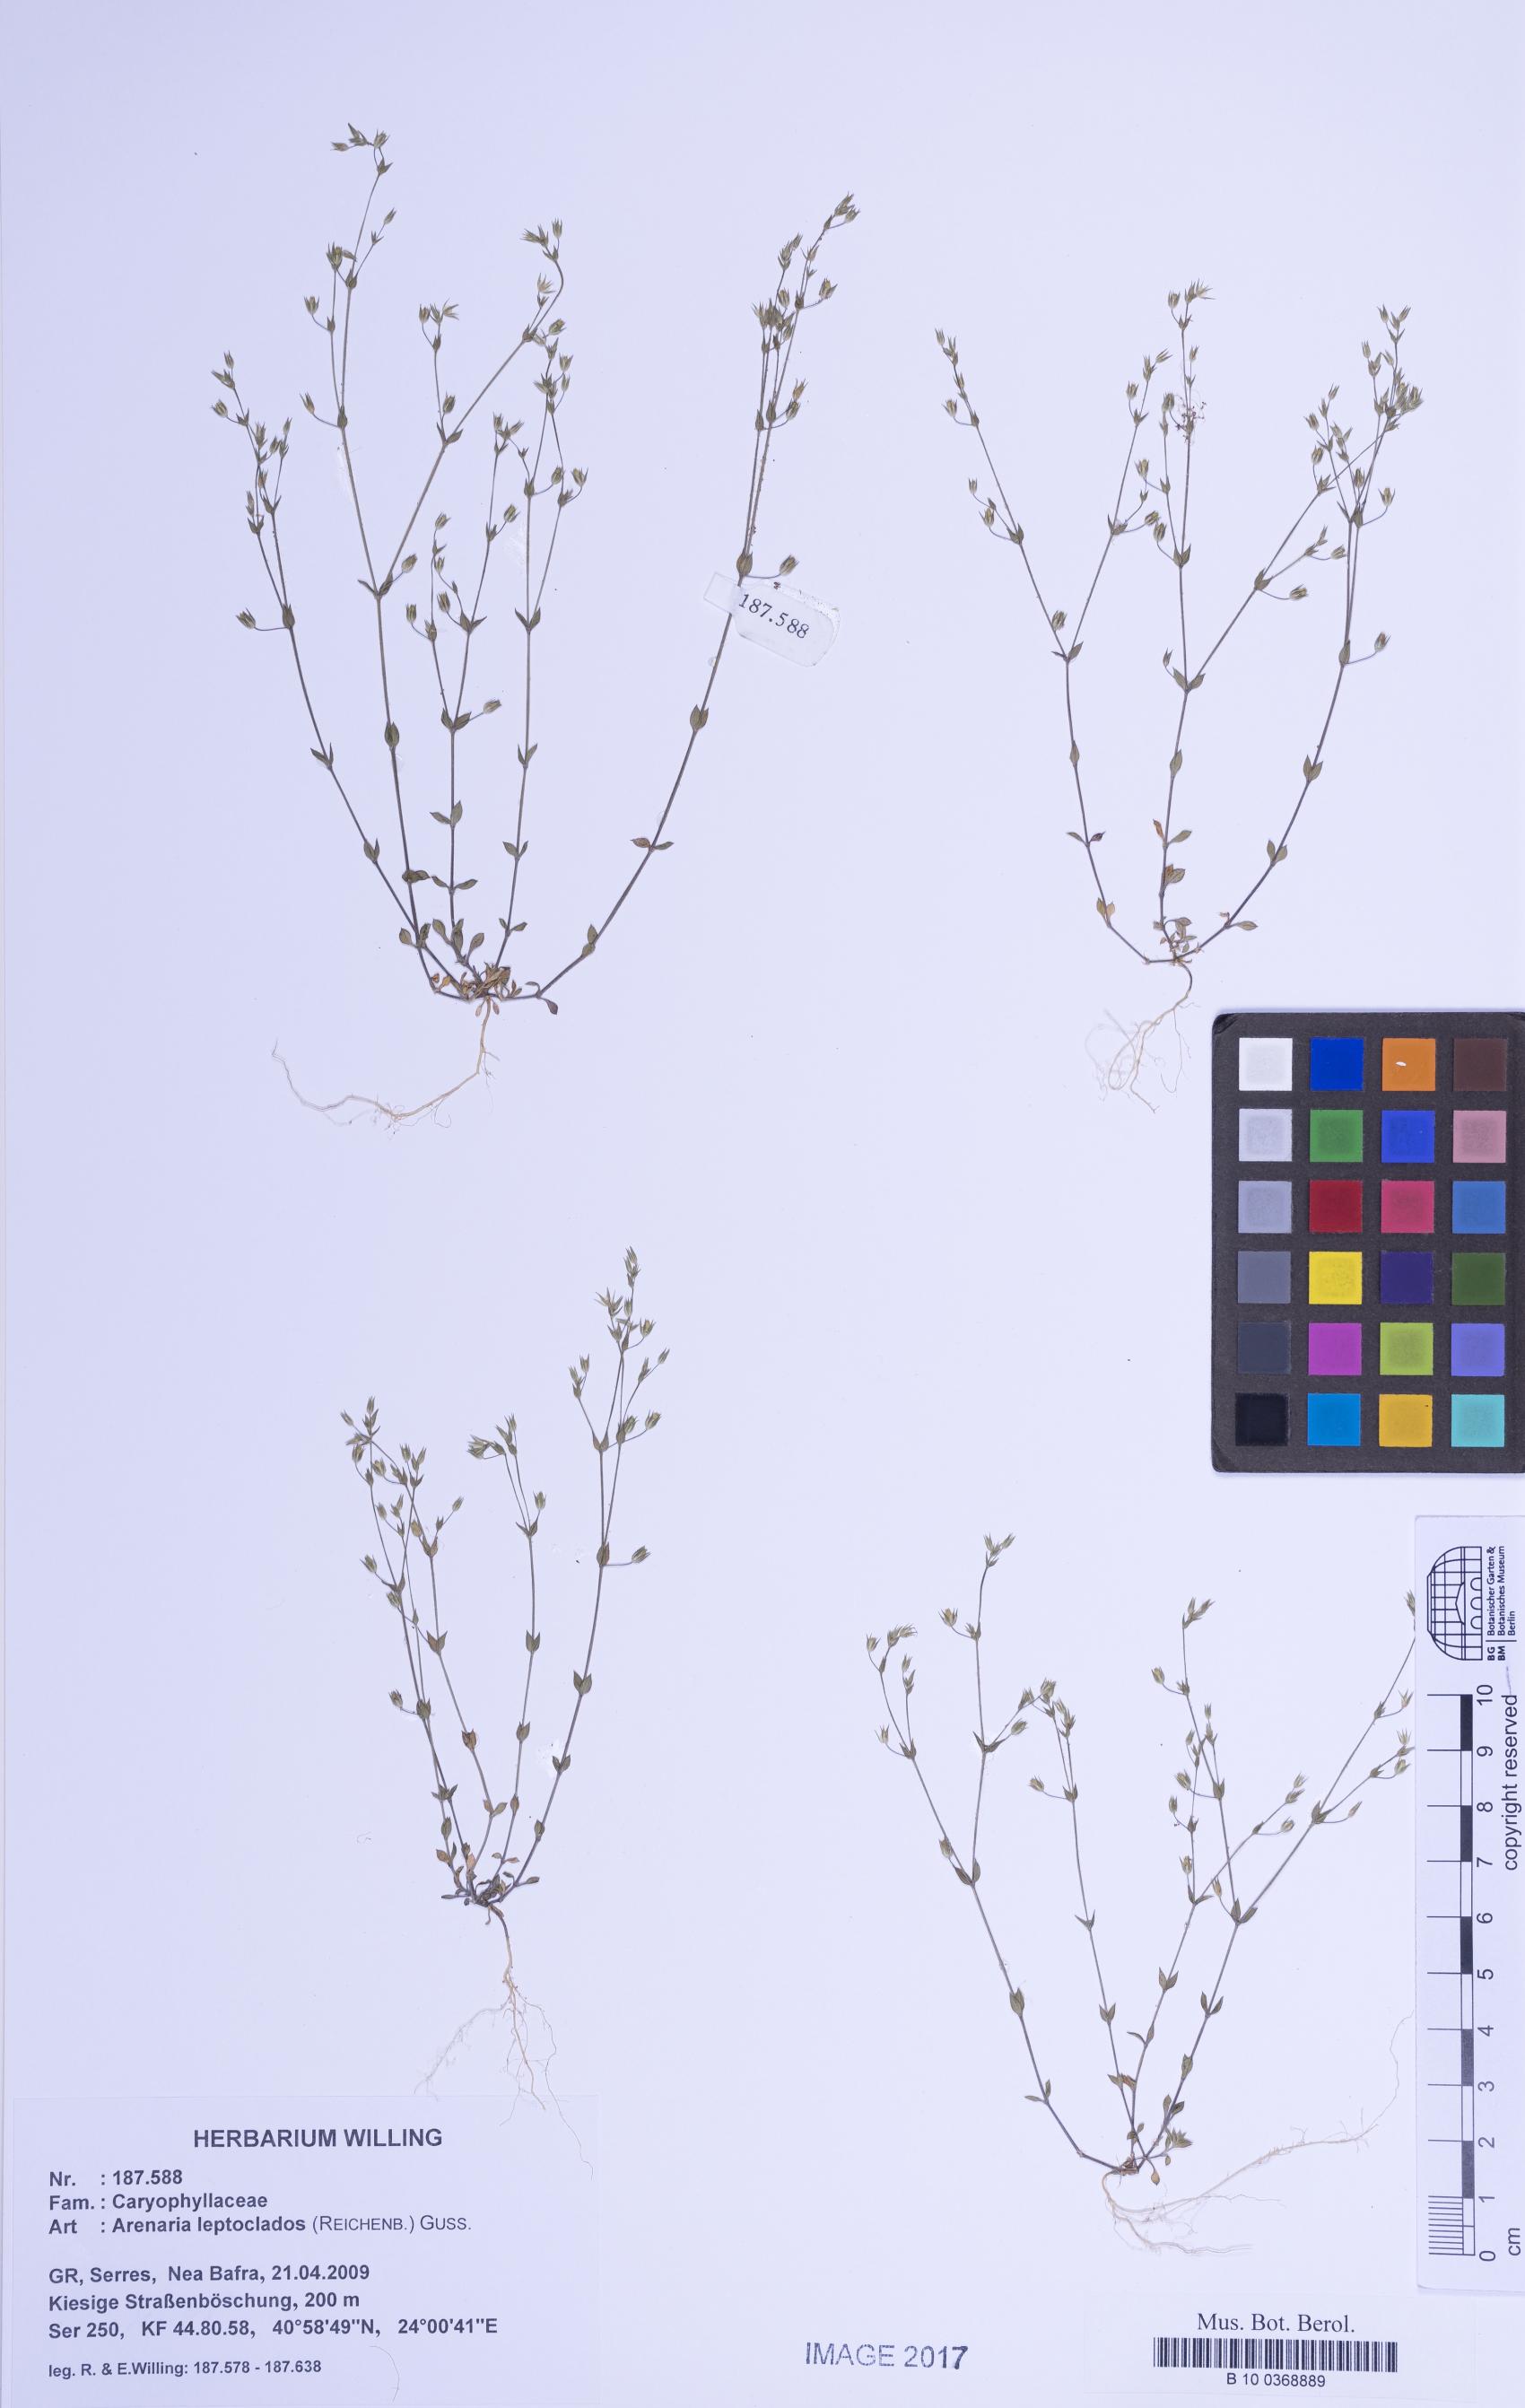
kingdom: Plantae
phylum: Tracheophyta
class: Magnoliopsida
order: Caryophyllales
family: Caryophyllaceae
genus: Arenaria
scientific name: Arenaria leptoclados
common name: Thyme-leaved sandwort
